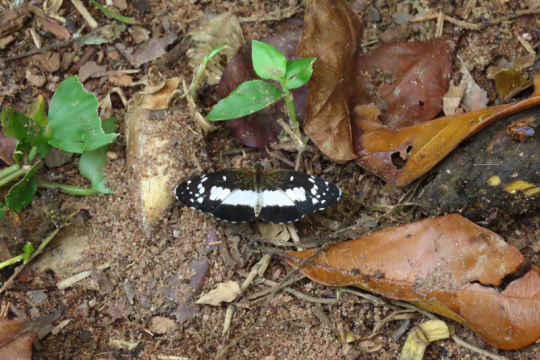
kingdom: Animalia
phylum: Arthropoda
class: Insecta
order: Lepidoptera
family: Nymphalidae
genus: Castilia
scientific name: Castilia ofella
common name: White-dotted Crescent
